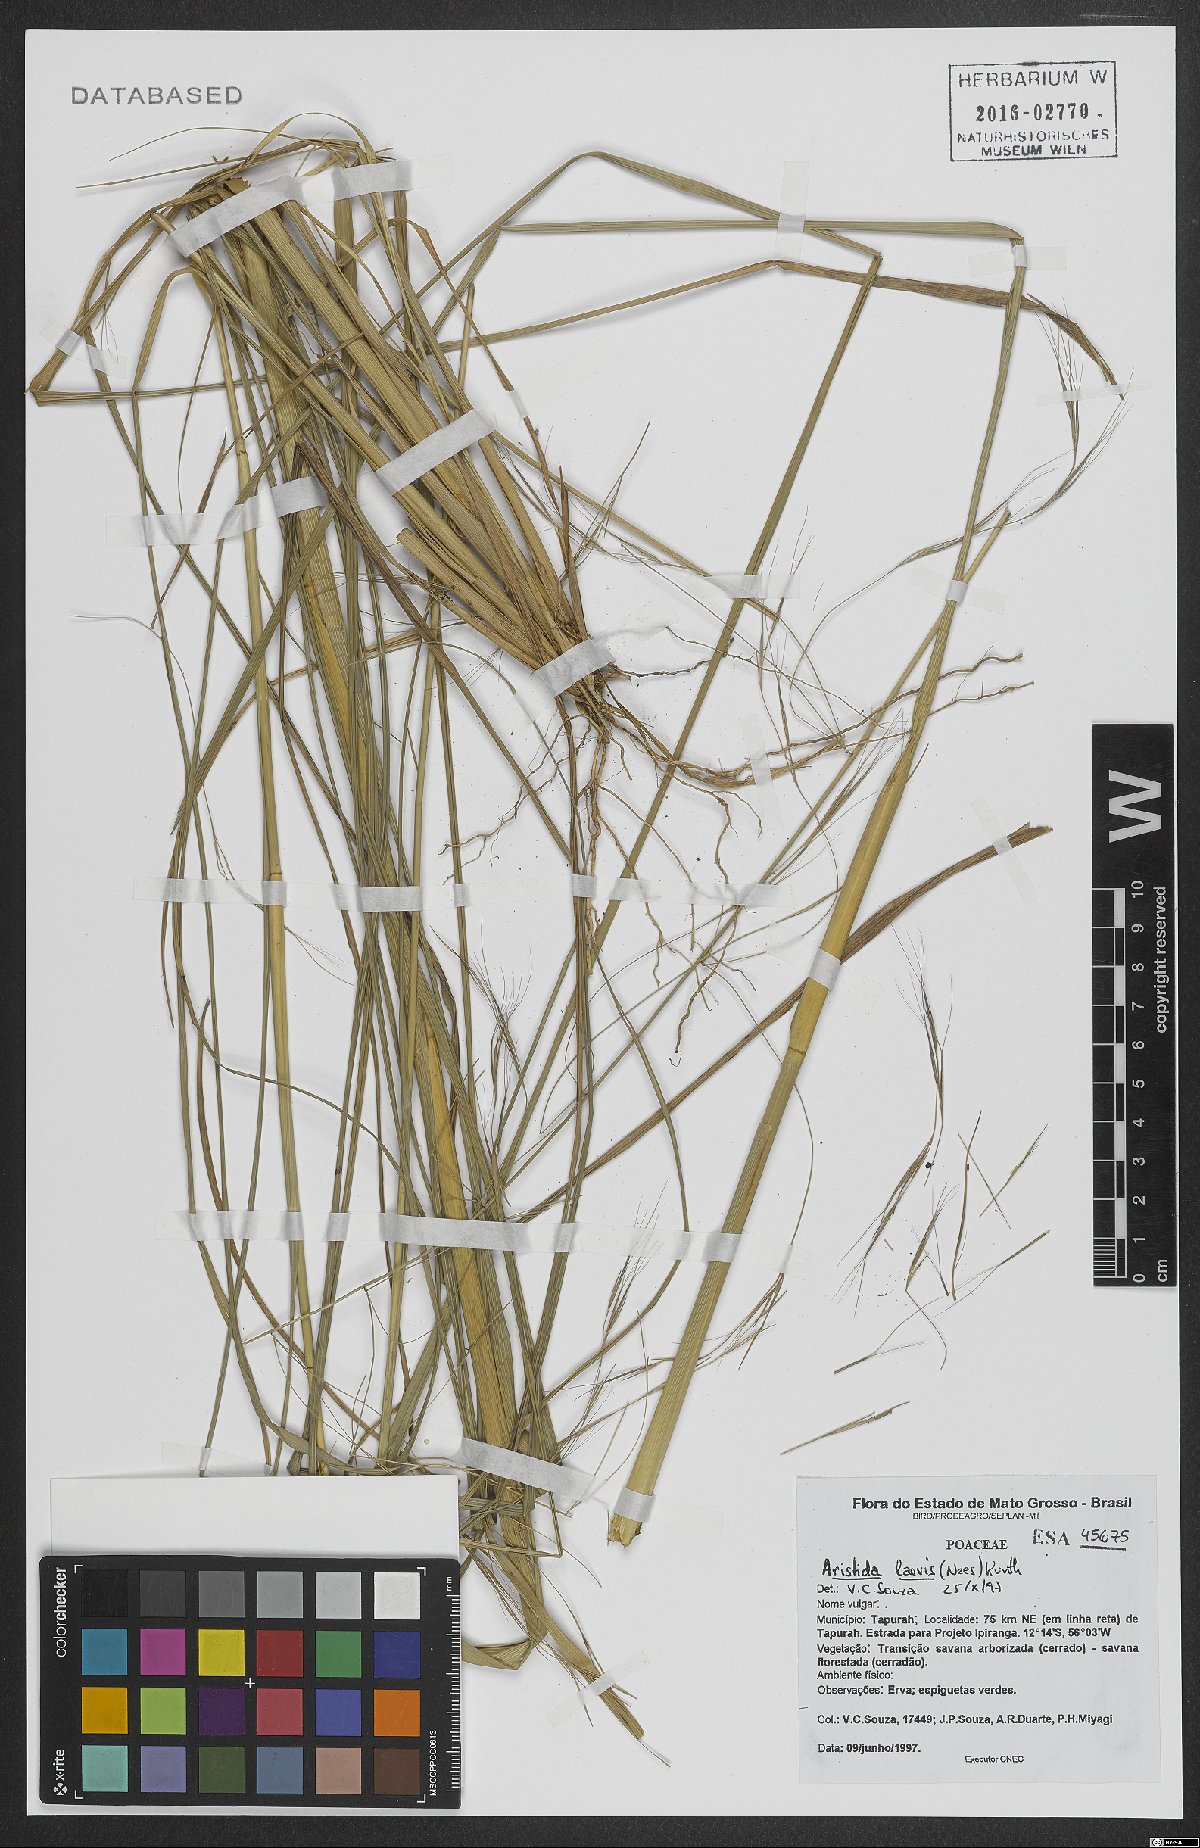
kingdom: Plantae
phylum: Tracheophyta
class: Liliopsida
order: Poales
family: Poaceae
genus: Aristida
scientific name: Aristida laevis
